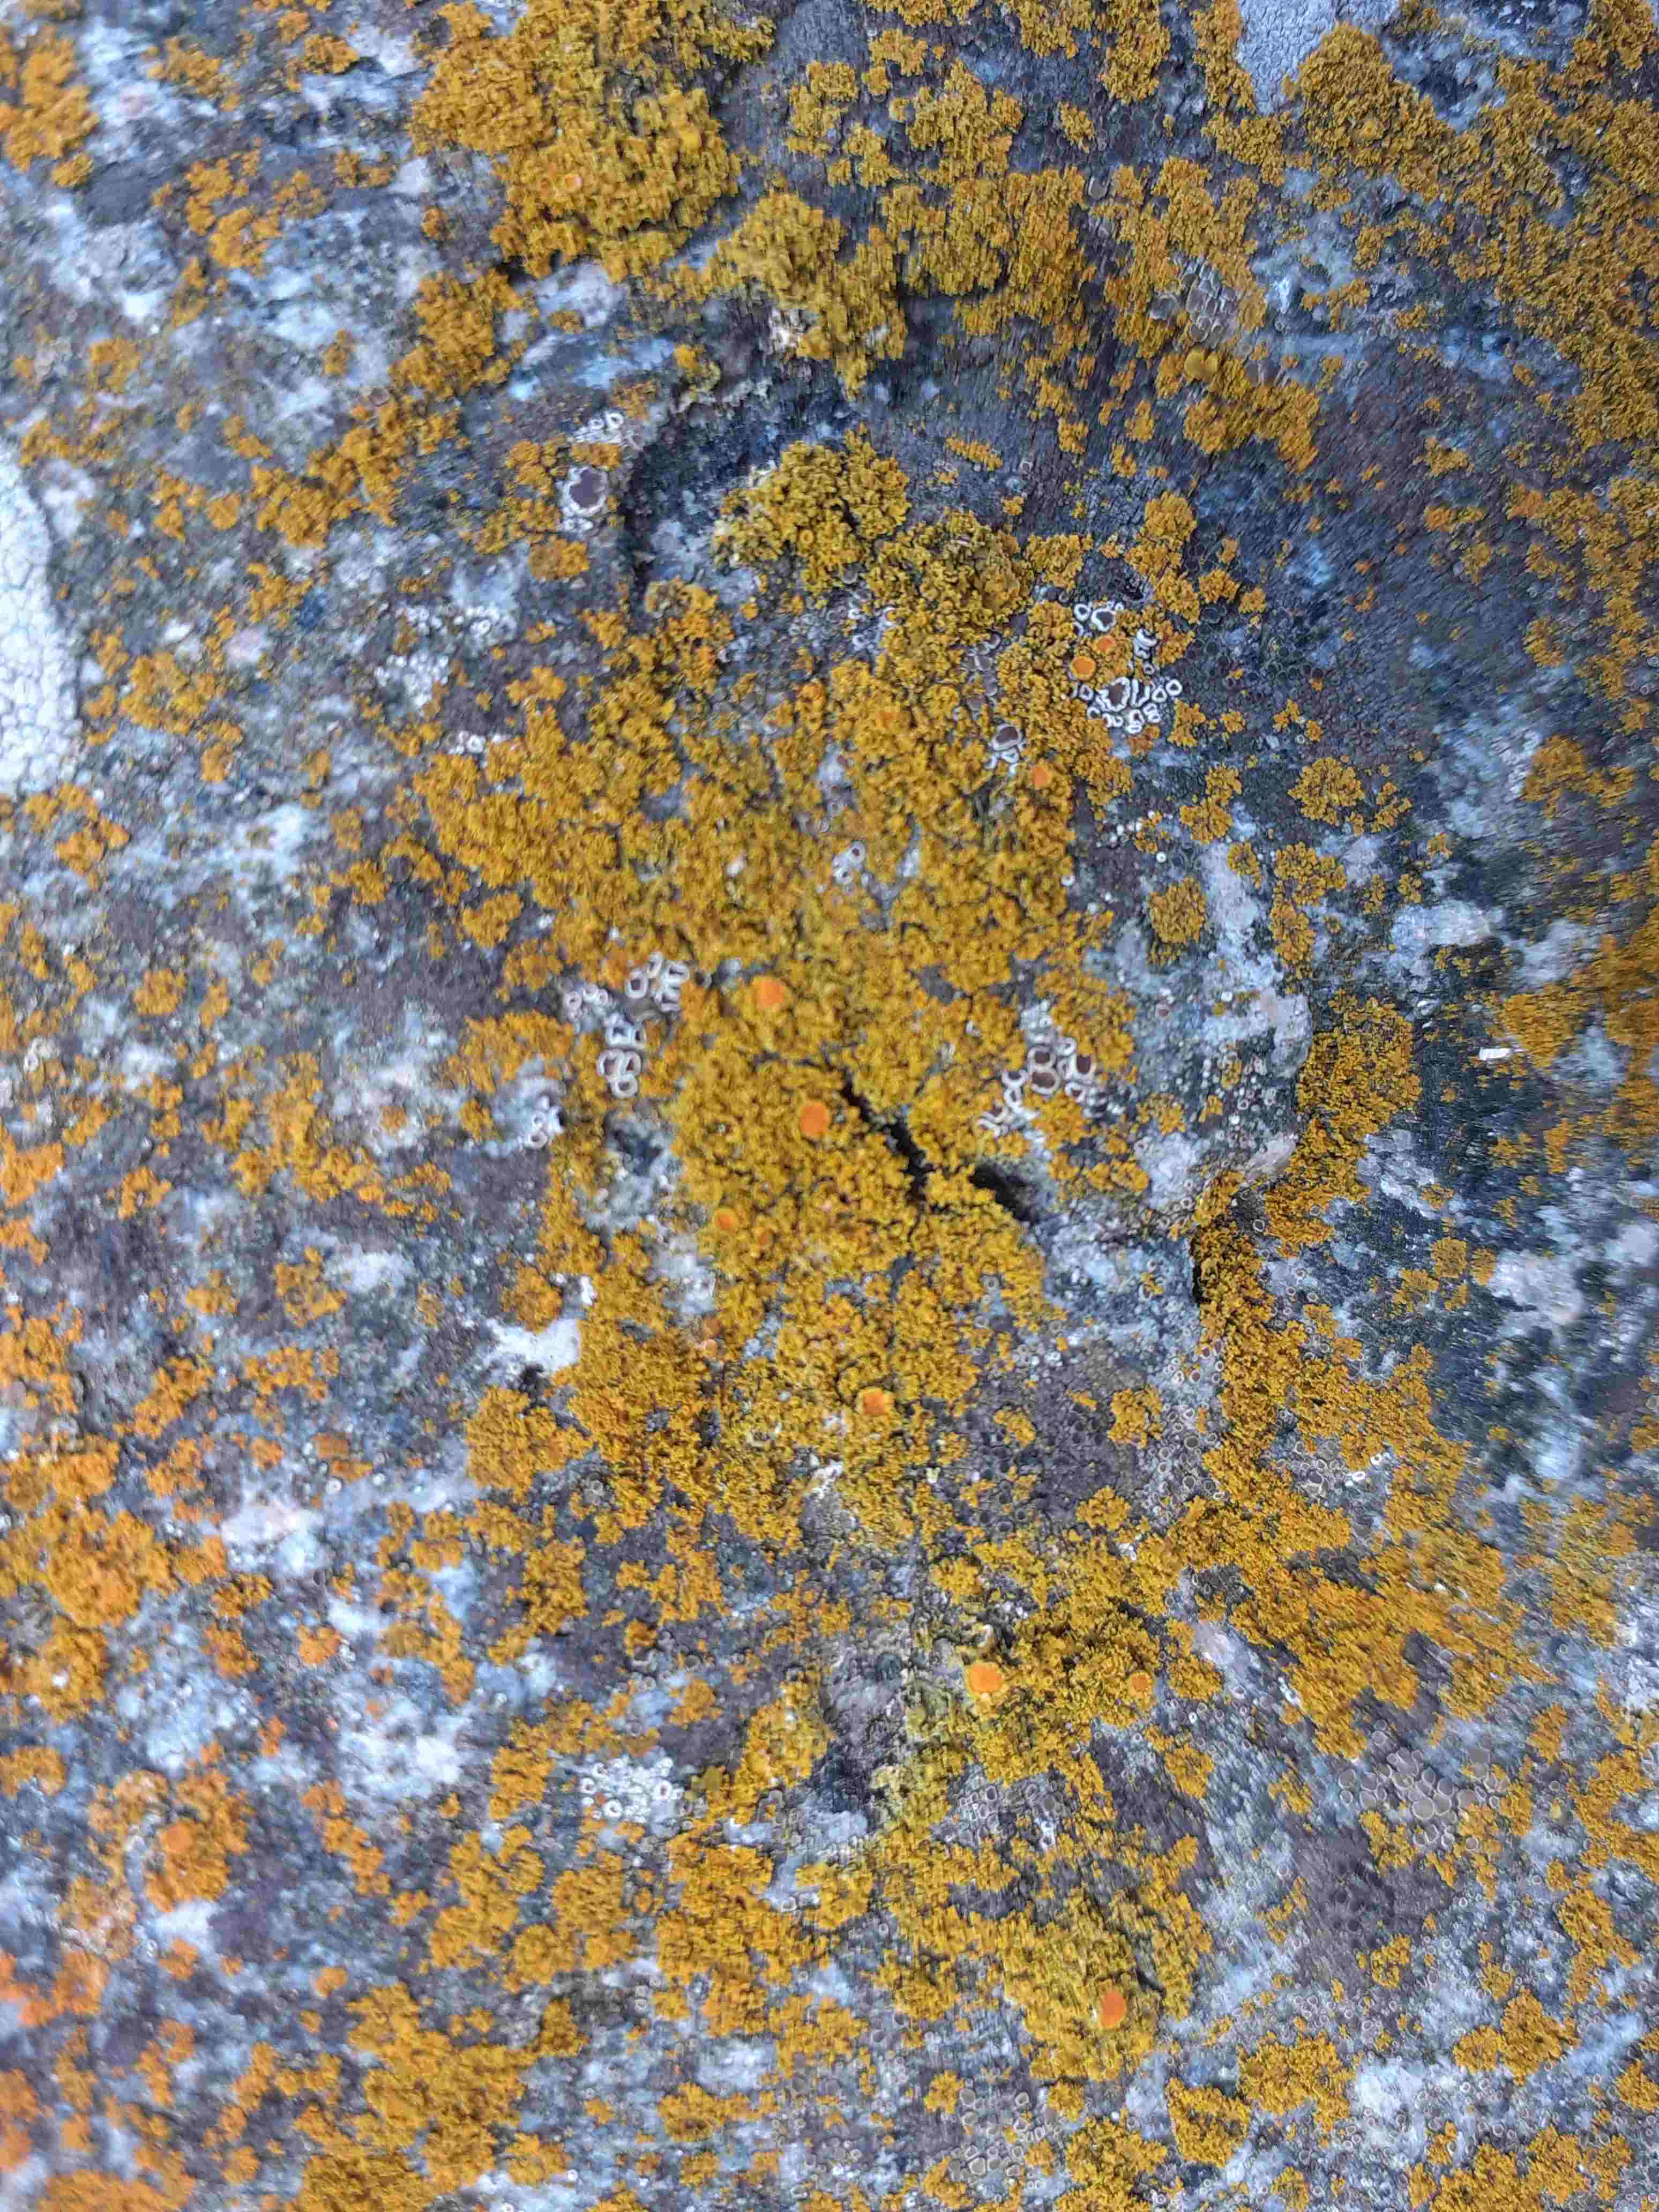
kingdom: Fungi
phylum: Ascomycota
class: Lecanoromycetes
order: Teloschistales
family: Teloschistaceae
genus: Polycauliona
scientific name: Polycauliona candelaria
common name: tue-orangelav
